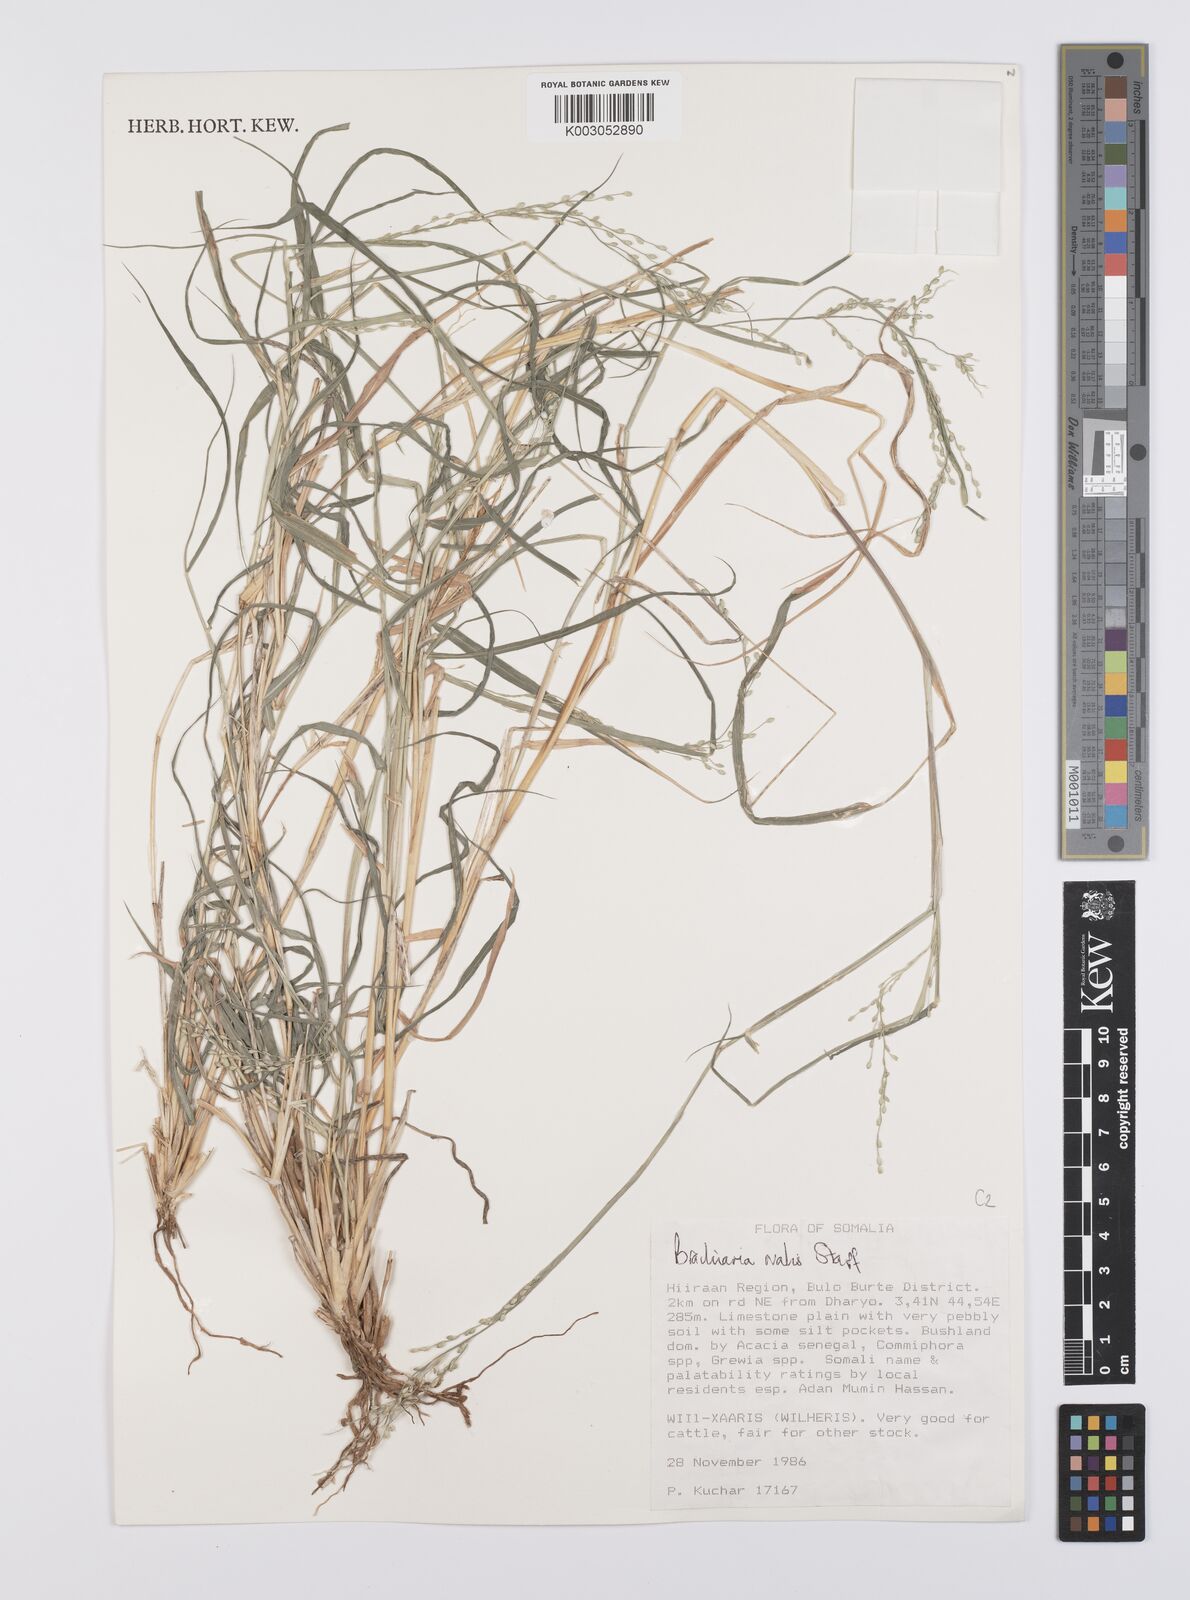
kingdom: Plantae
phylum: Tracheophyta
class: Liliopsida
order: Poales
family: Poaceae
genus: Urochloa
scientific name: Urochloa ovalis
